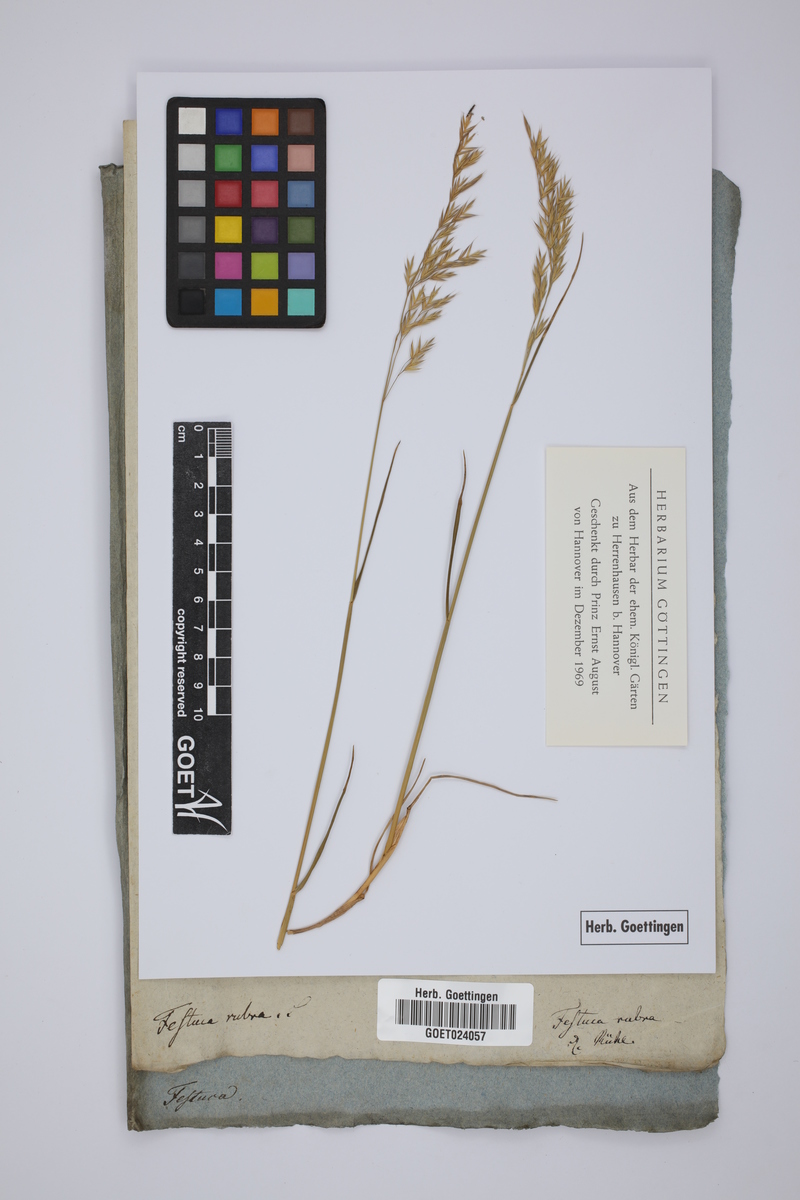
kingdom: Plantae
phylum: Tracheophyta
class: Liliopsida
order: Poales
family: Poaceae
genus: Festuca
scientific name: Festuca rubra
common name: Red fescue
